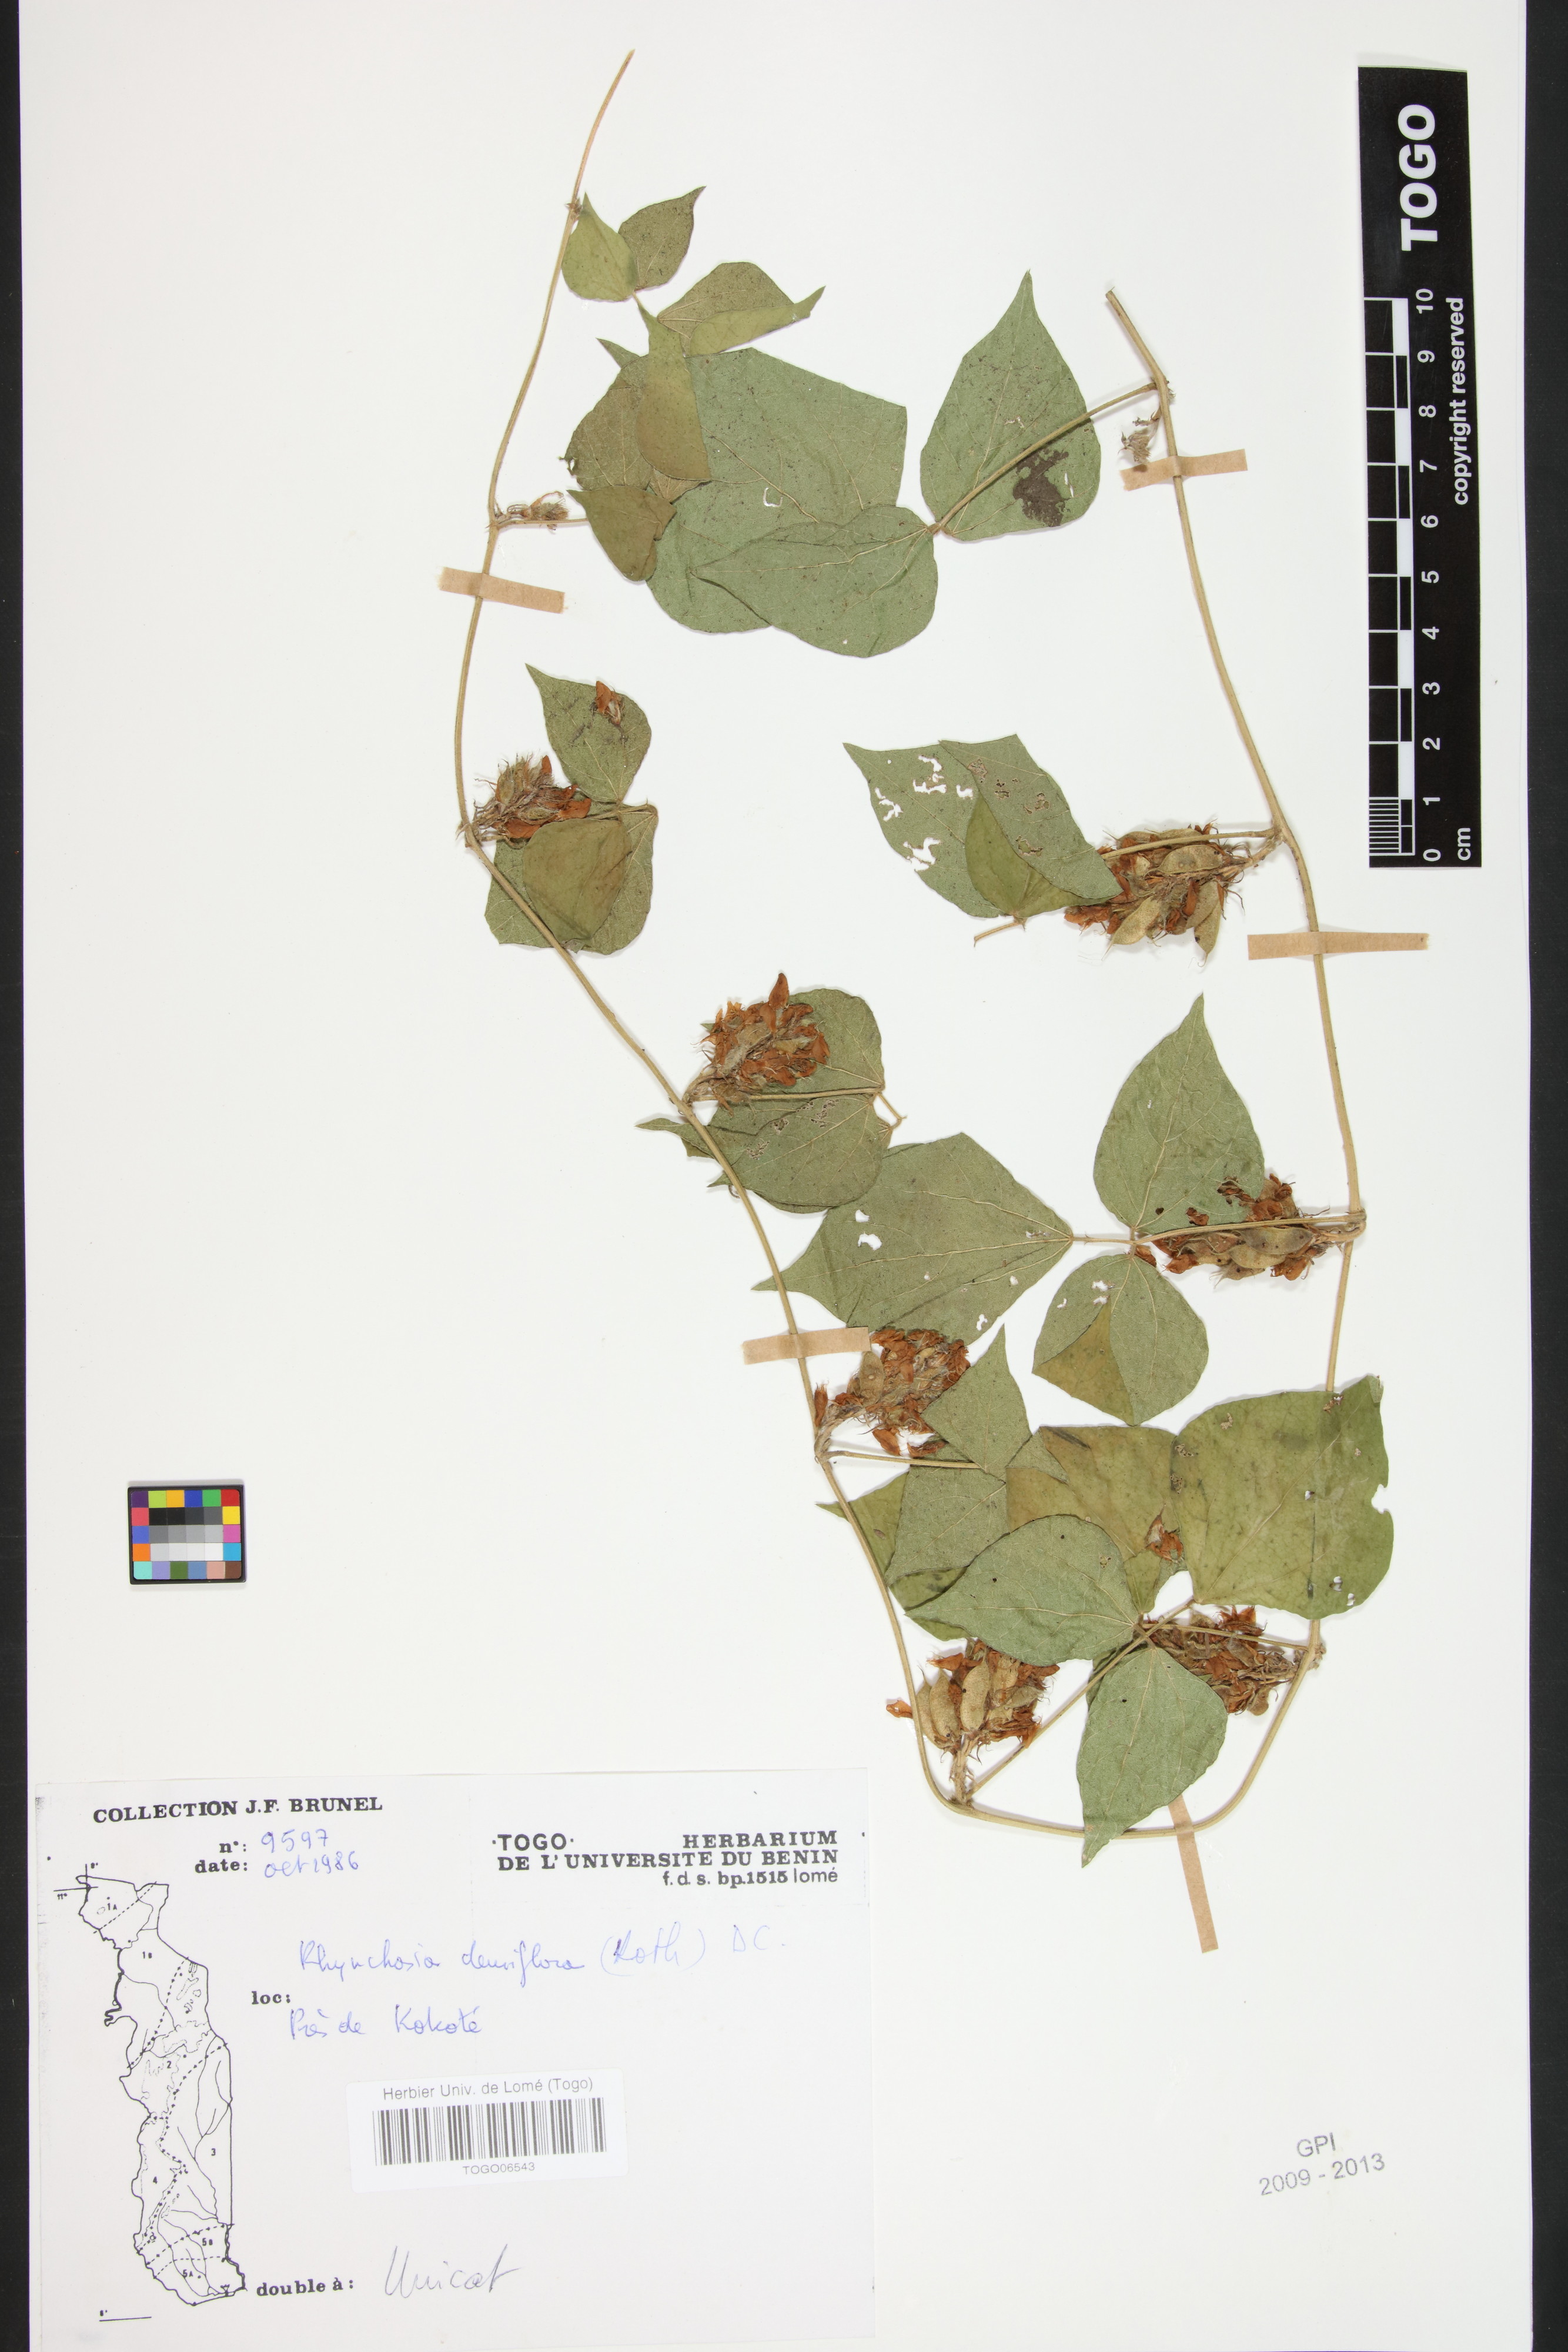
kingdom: Plantae
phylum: Tracheophyta
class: Magnoliopsida
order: Fabales
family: Fabaceae
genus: Rhynchosia
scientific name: Rhynchosia densiflora
